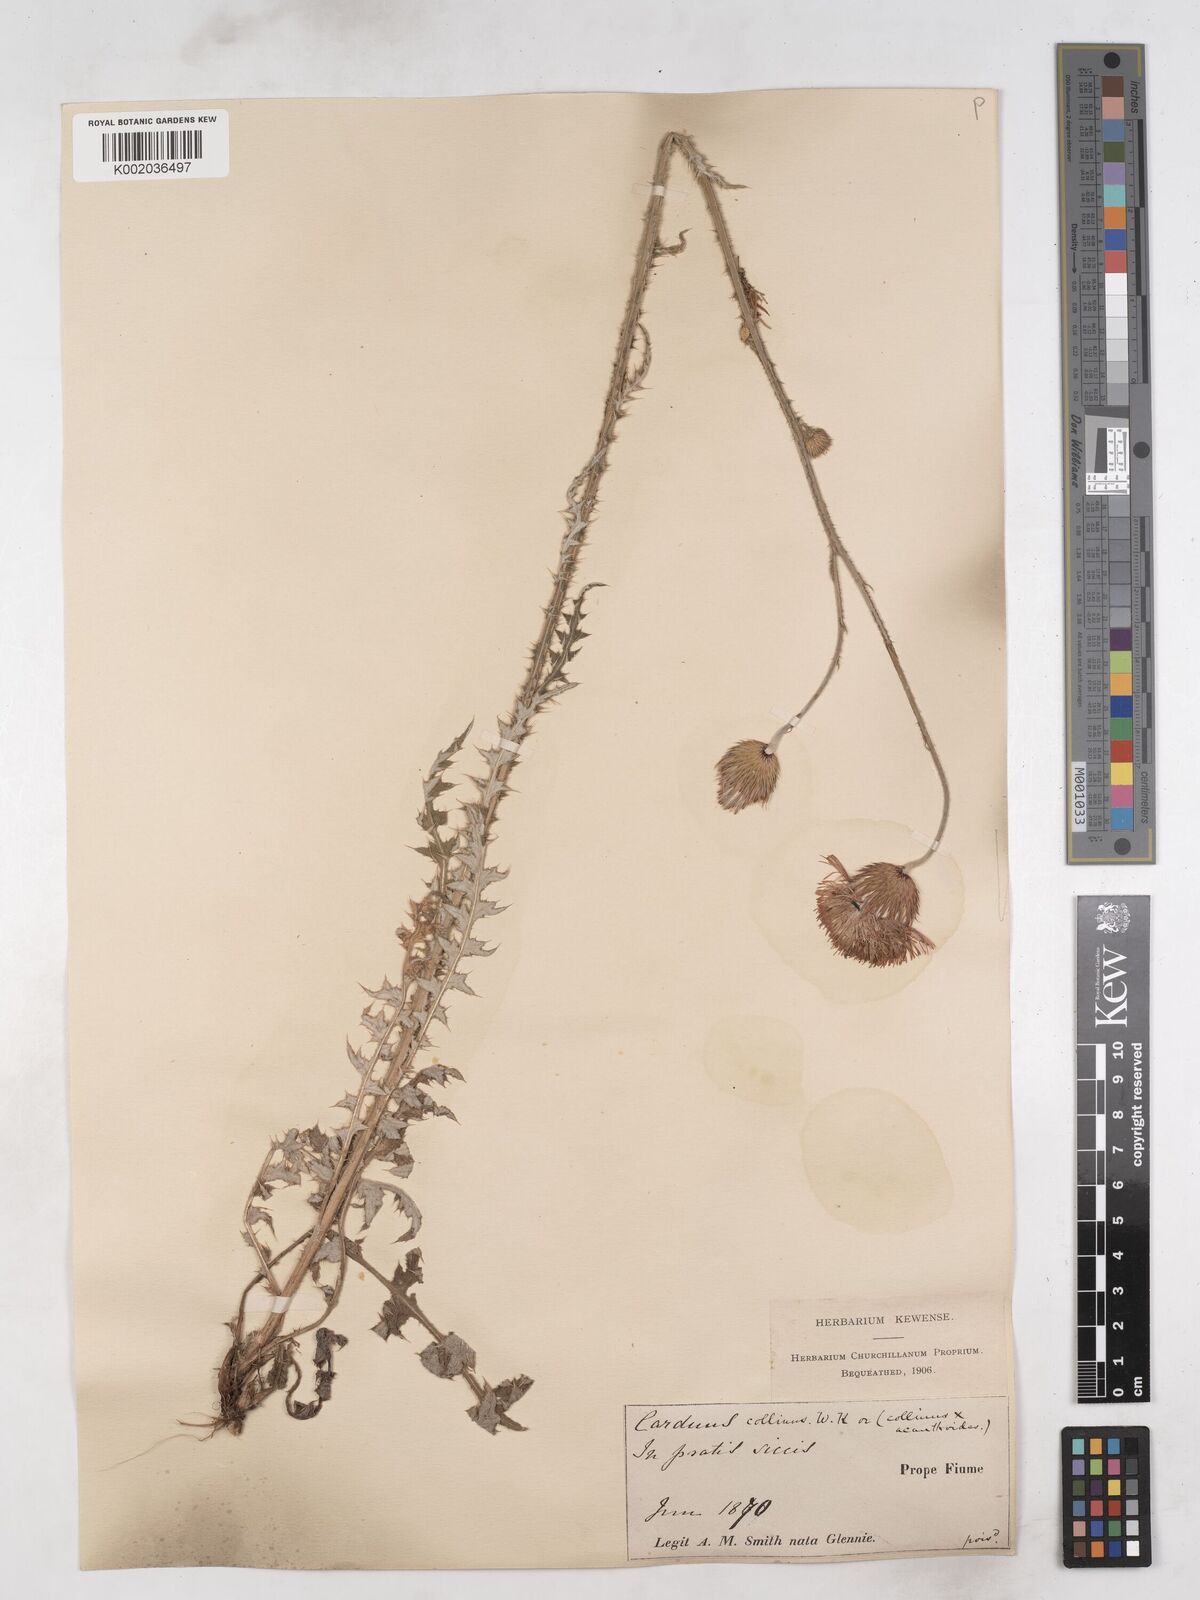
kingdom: Plantae
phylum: Tracheophyta
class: Magnoliopsida
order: Asterales
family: Asteraceae
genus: Carduus
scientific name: Carduus collinus
